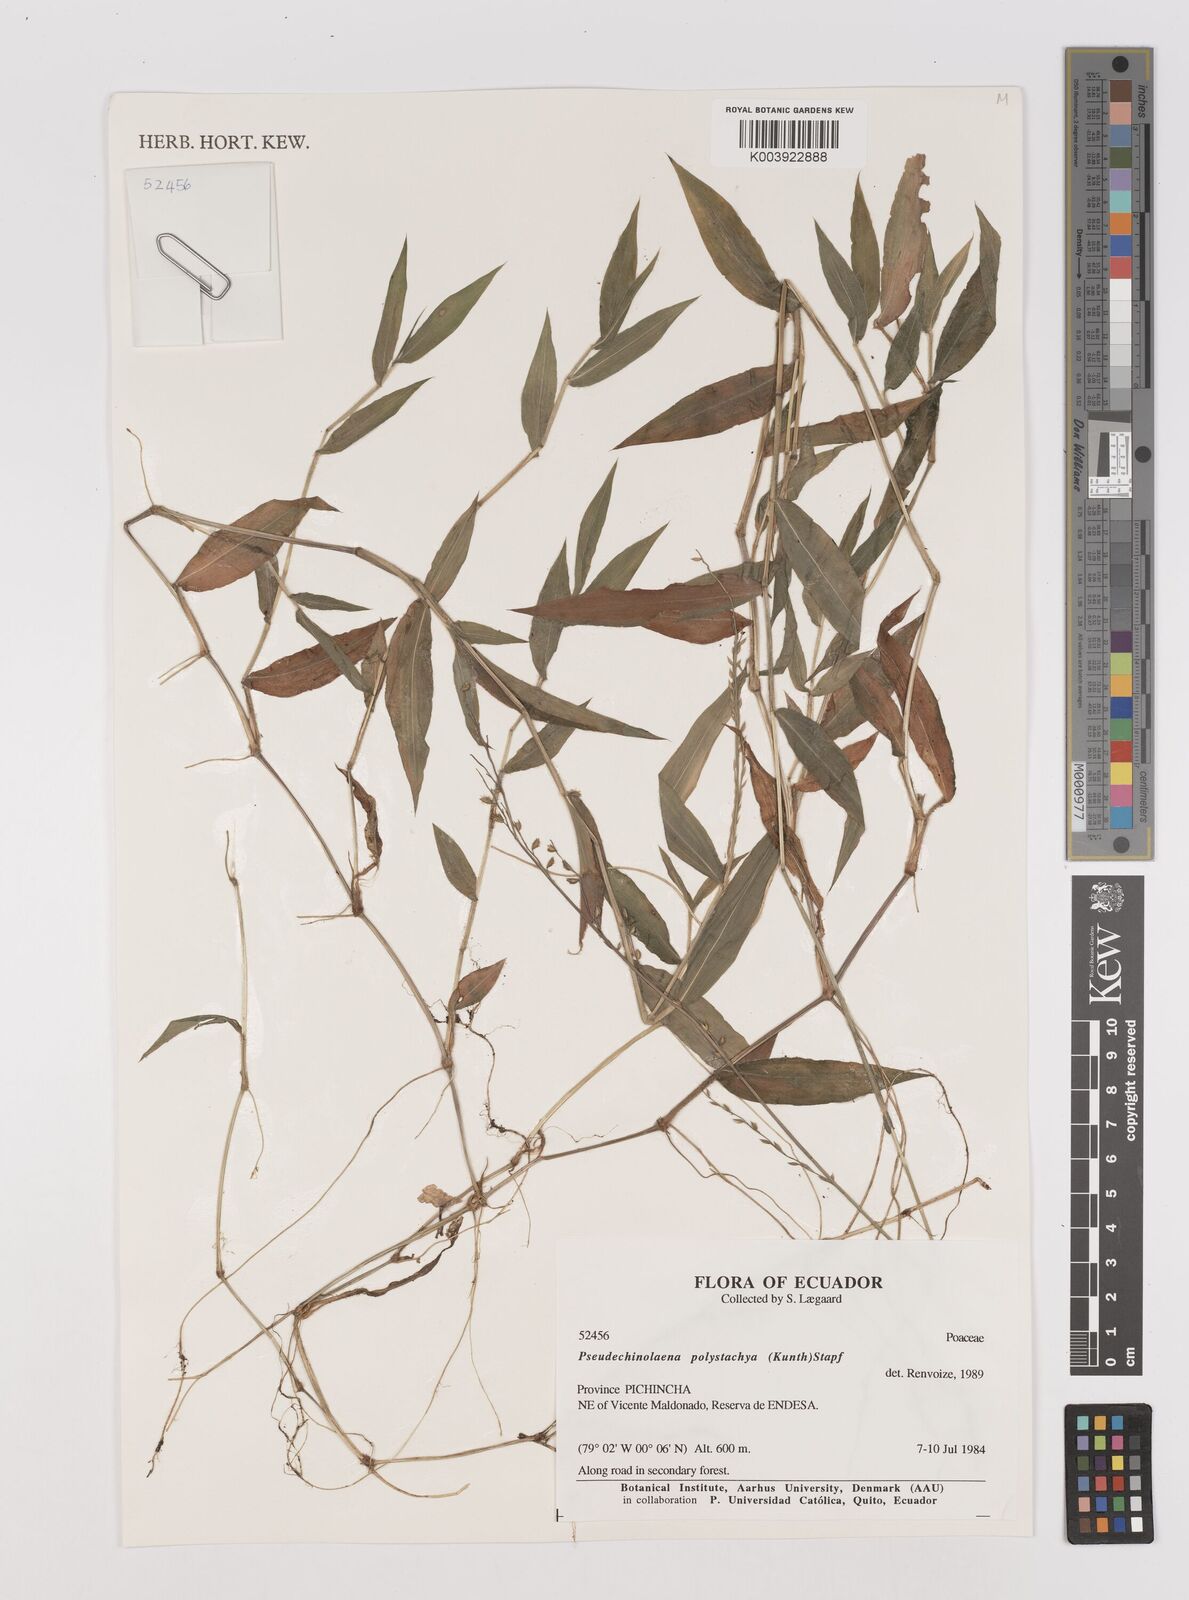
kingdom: Plantae
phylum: Tracheophyta
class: Liliopsida
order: Poales
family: Poaceae
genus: Pseudechinolaena
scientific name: Pseudechinolaena polystachya
